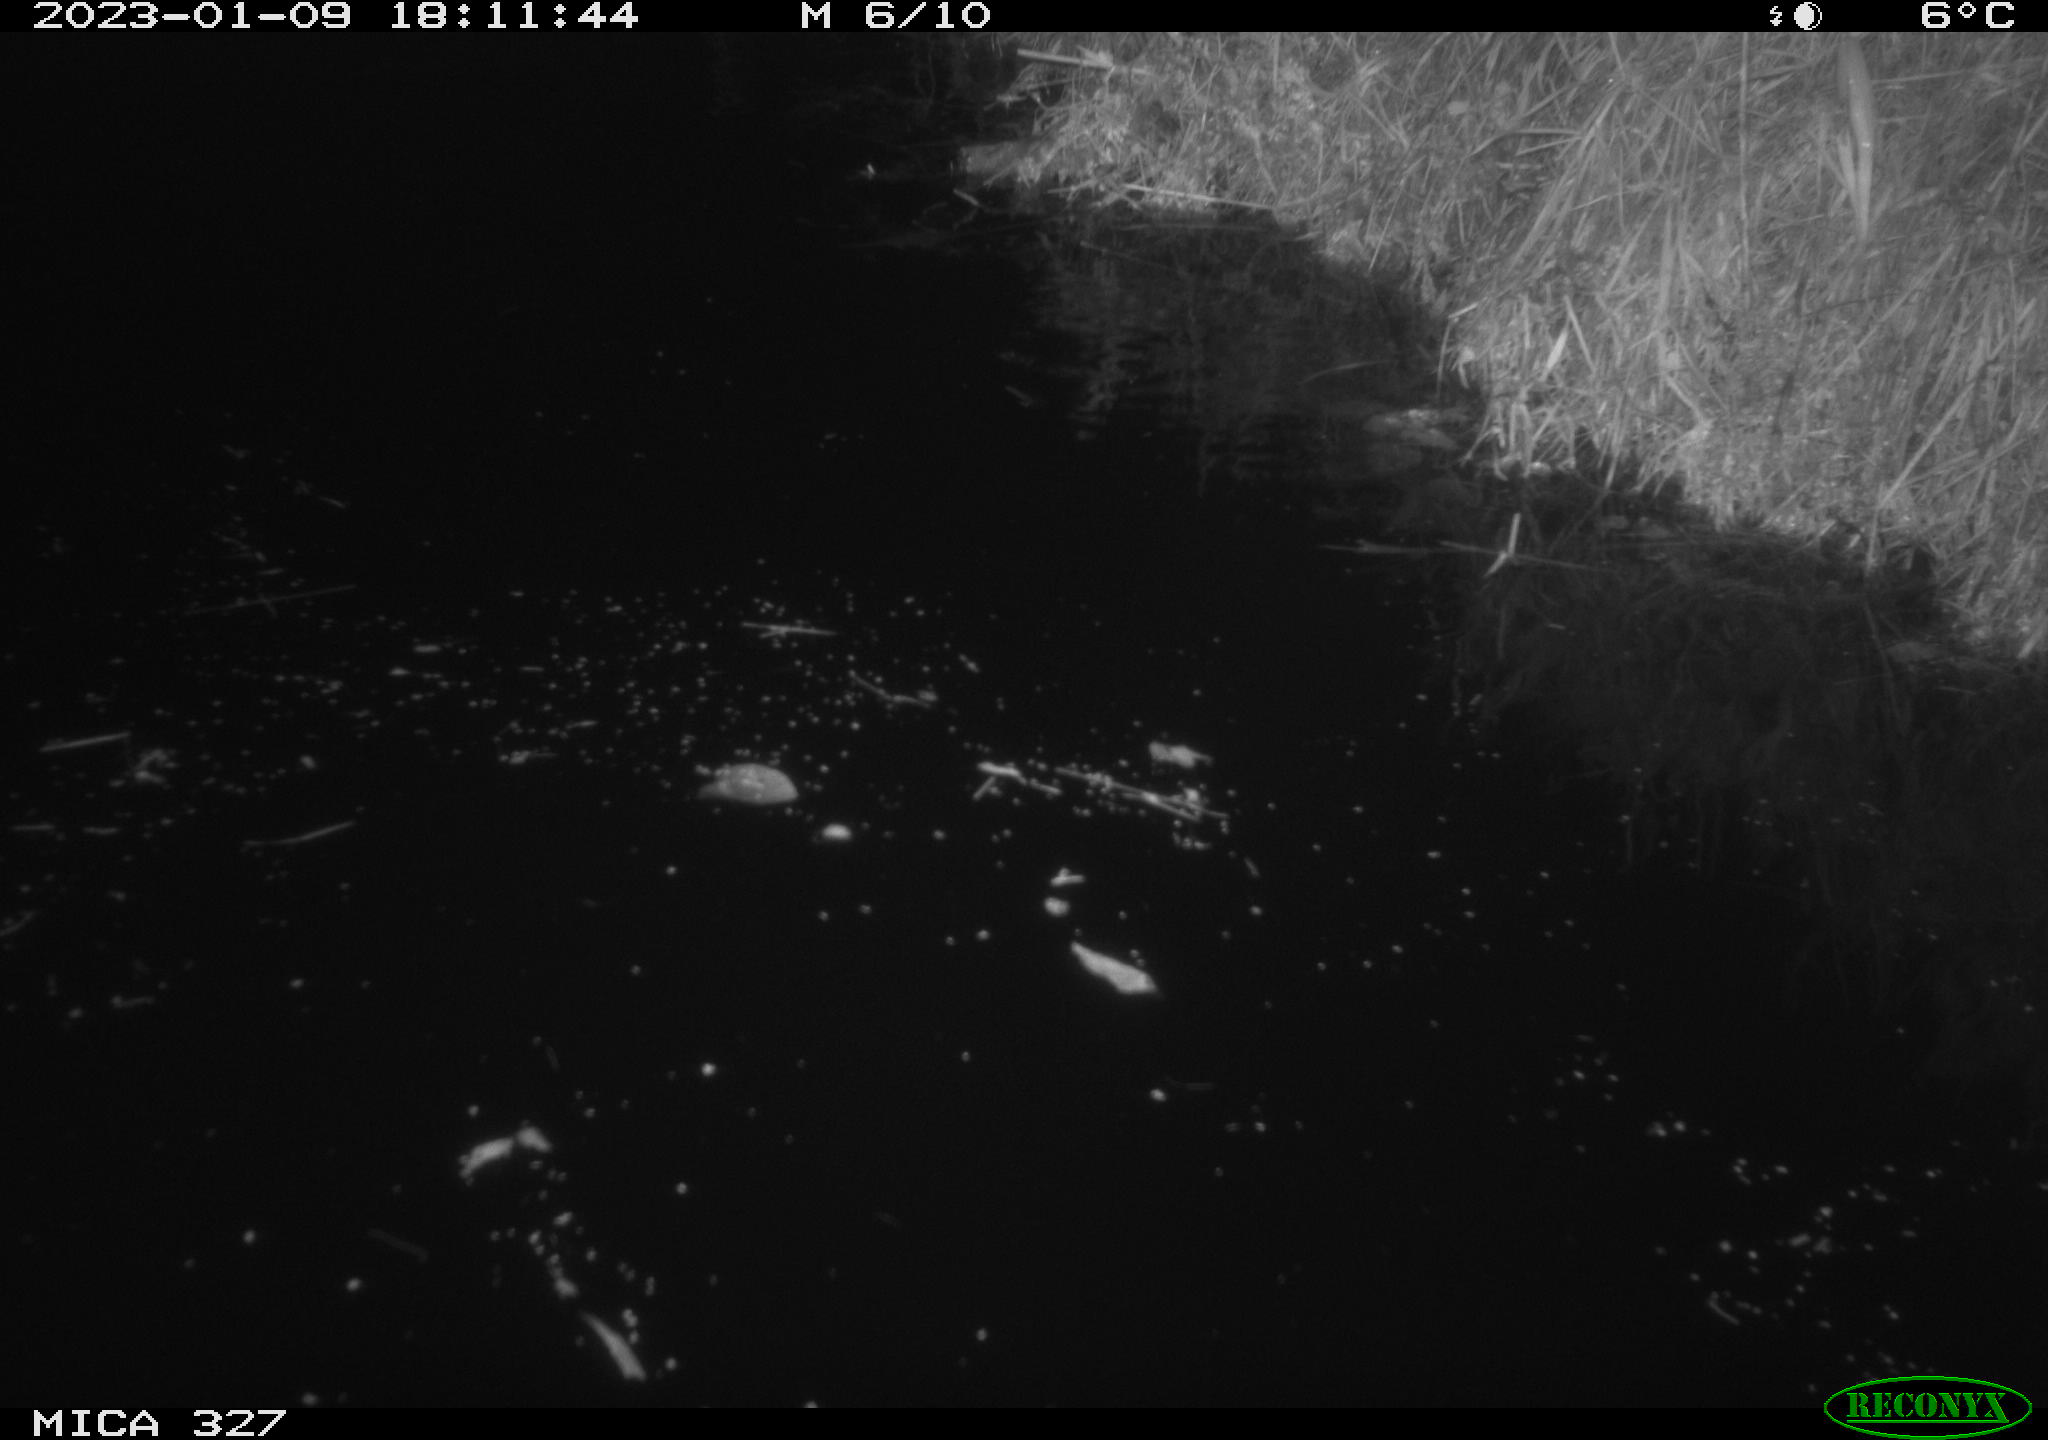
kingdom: Animalia
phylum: Chordata
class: Mammalia
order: Rodentia
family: Cricetidae
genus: Ondatra
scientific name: Ondatra zibethicus
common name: Muskrat
